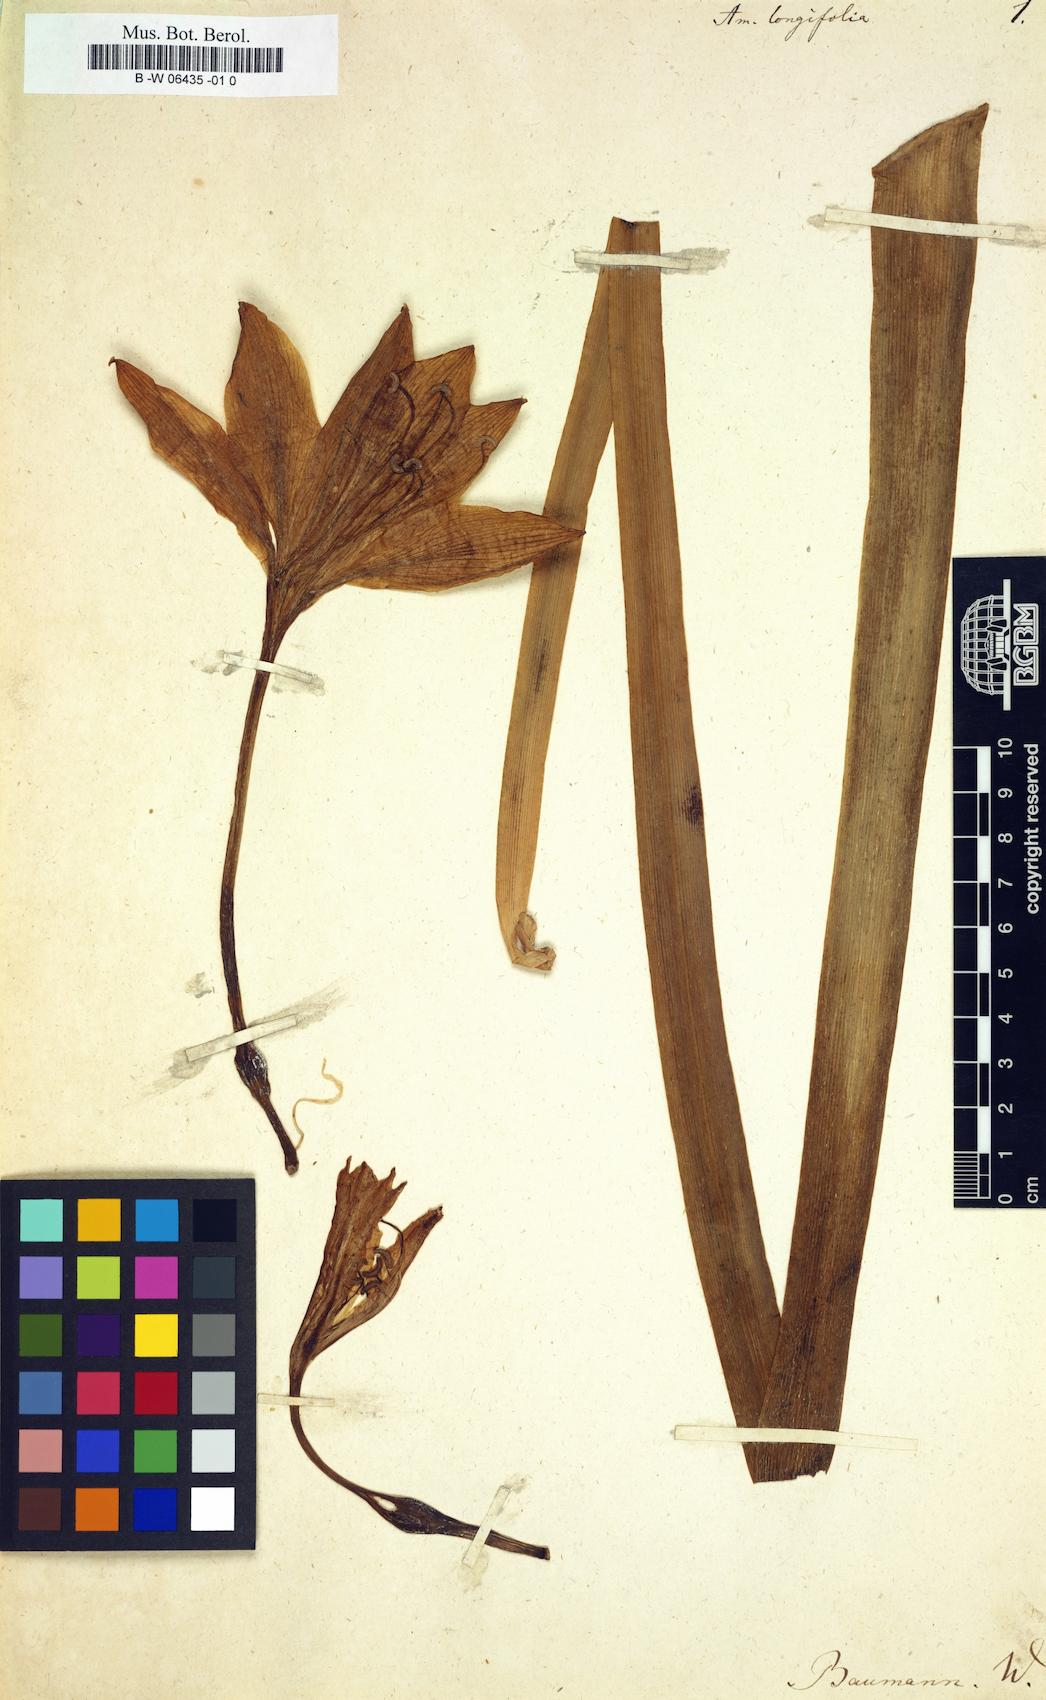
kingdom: Plantae
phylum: Tracheophyta
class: Liliopsida
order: Asparagales
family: Amaryllidaceae
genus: Ammocharis
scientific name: Ammocharis longifolia
